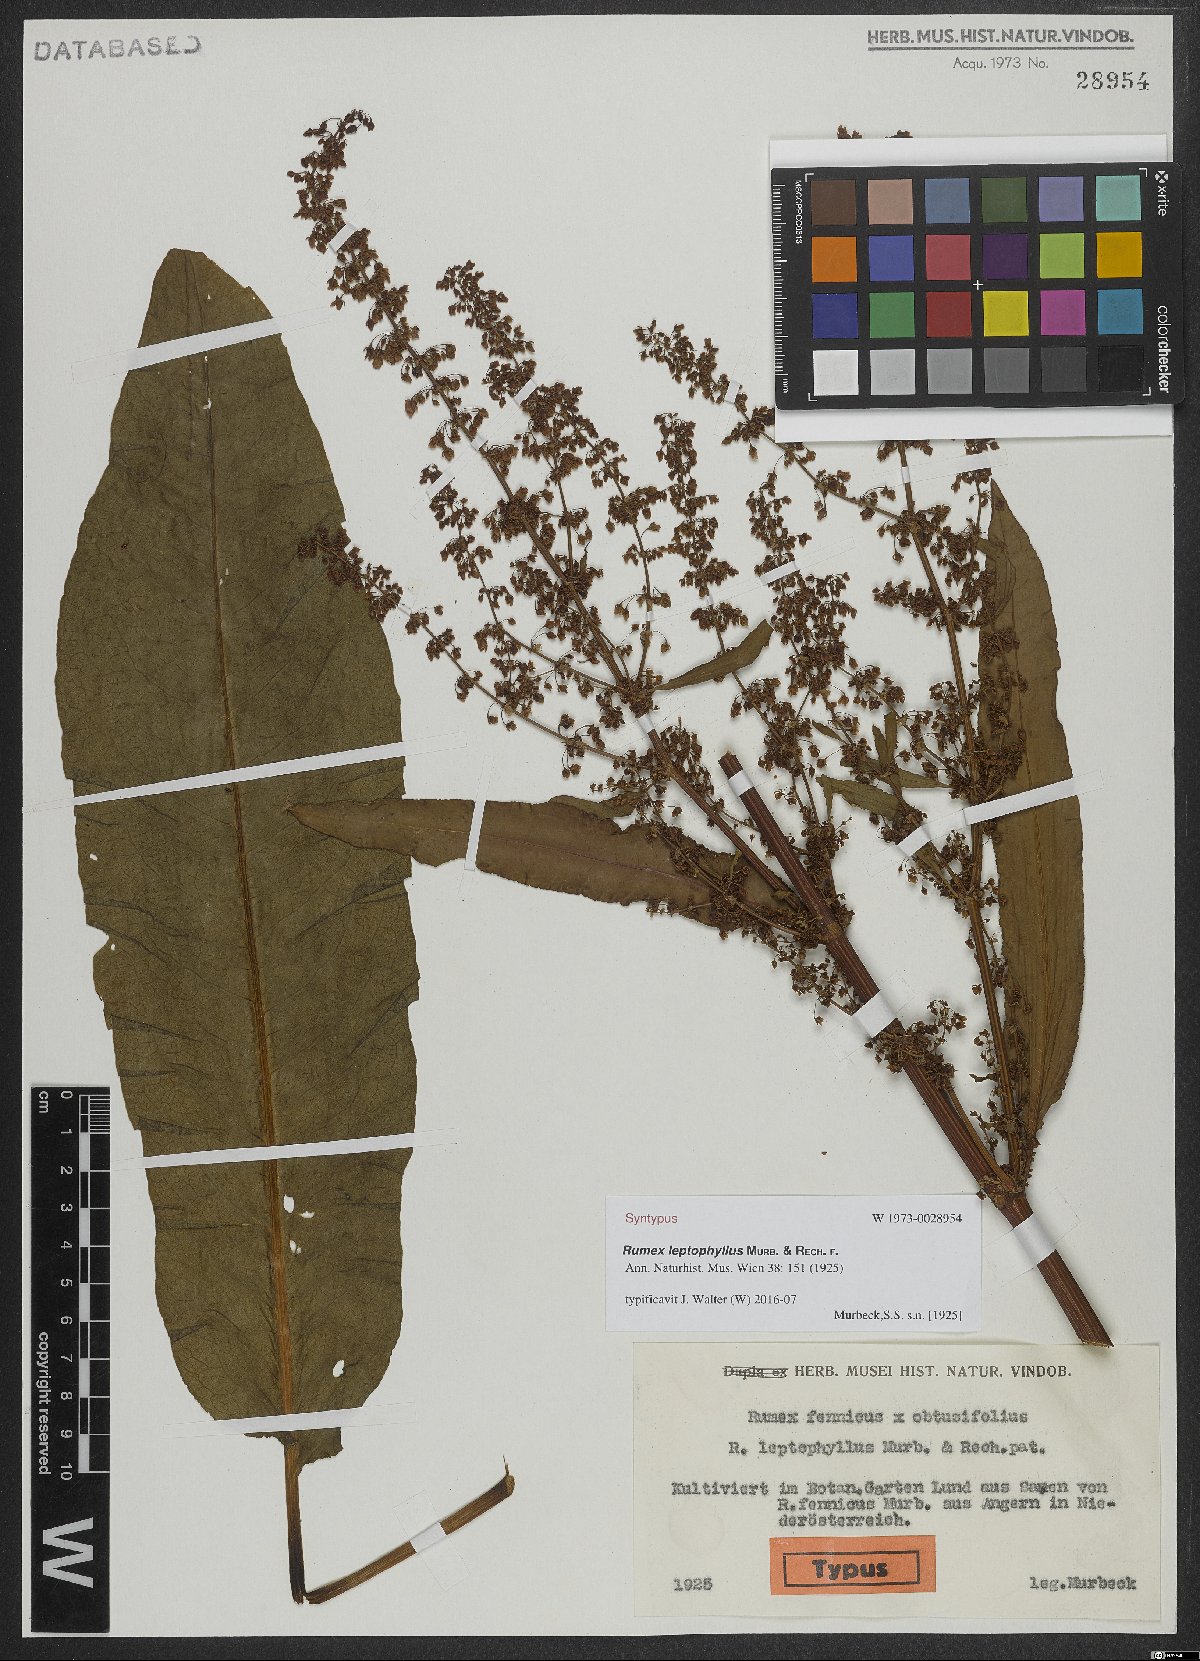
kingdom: Plantae
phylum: Tracheophyta
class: Magnoliopsida
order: Caryophyllales
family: Polygonaceae
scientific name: Polygonaceae
